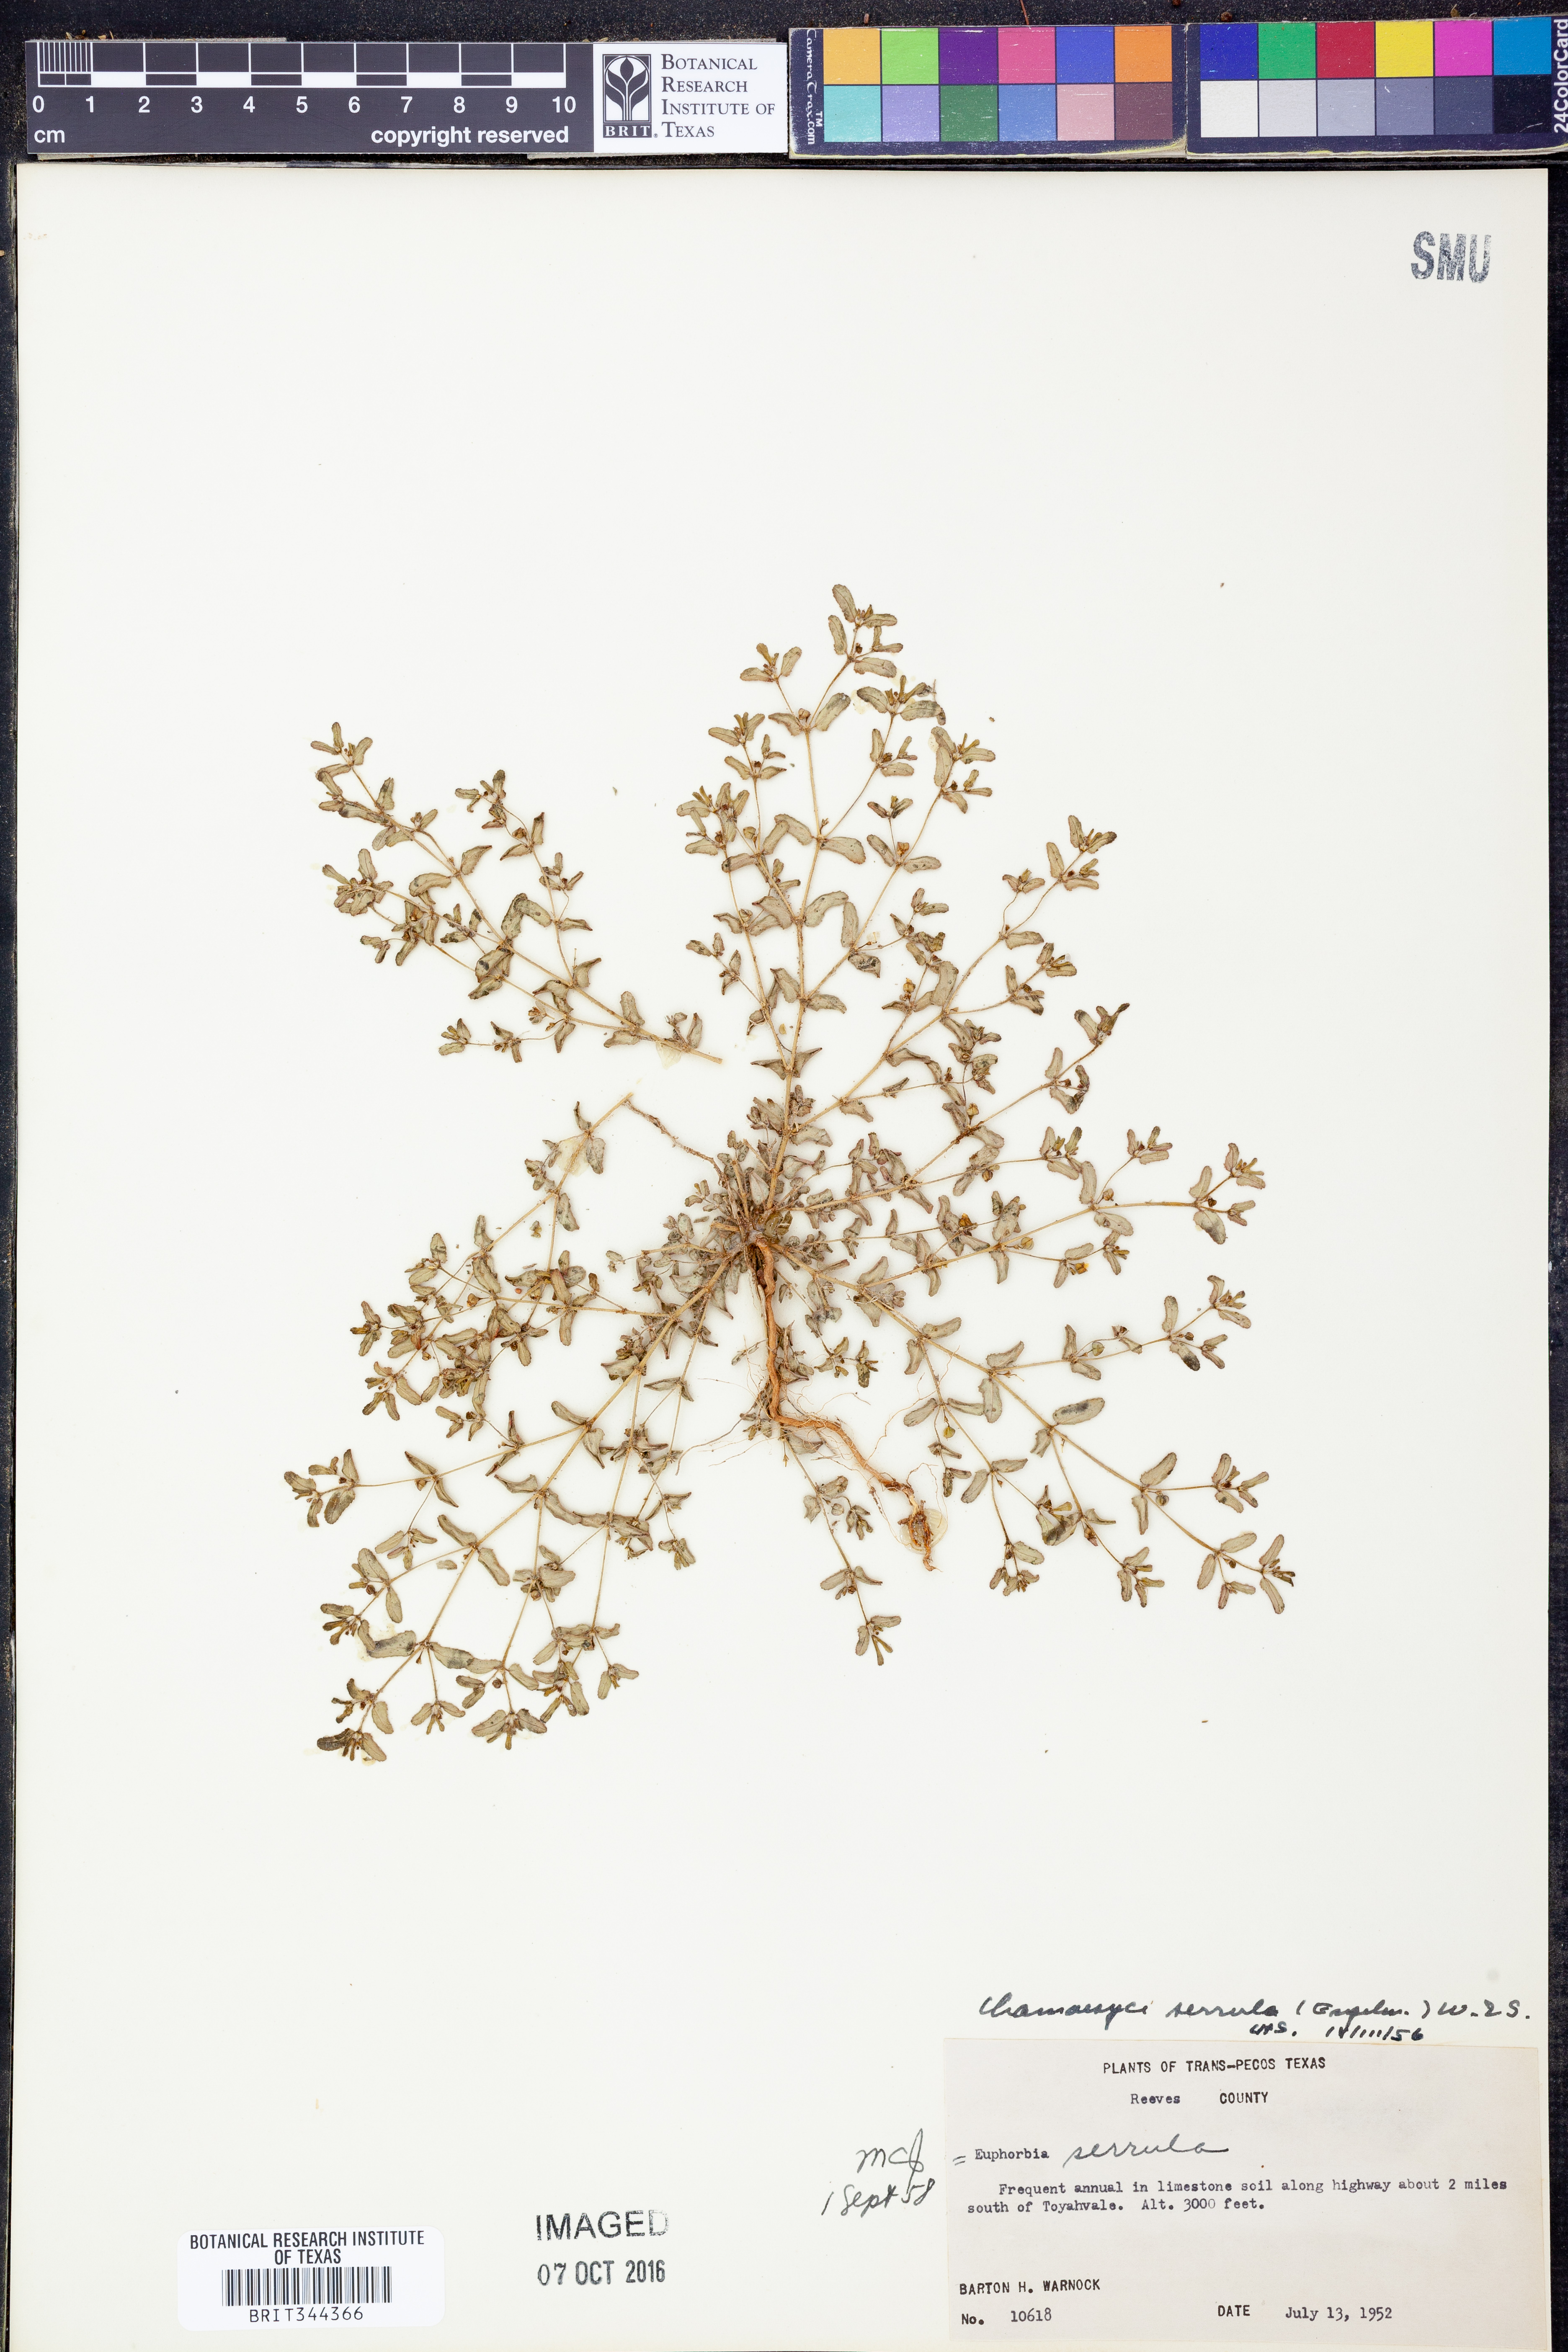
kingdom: Plantae
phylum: Tracheophyta
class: Magnoliopsida
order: Malpighiales
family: Euphorbiaceae
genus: Euphorbia
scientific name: Euphorbia serrula
